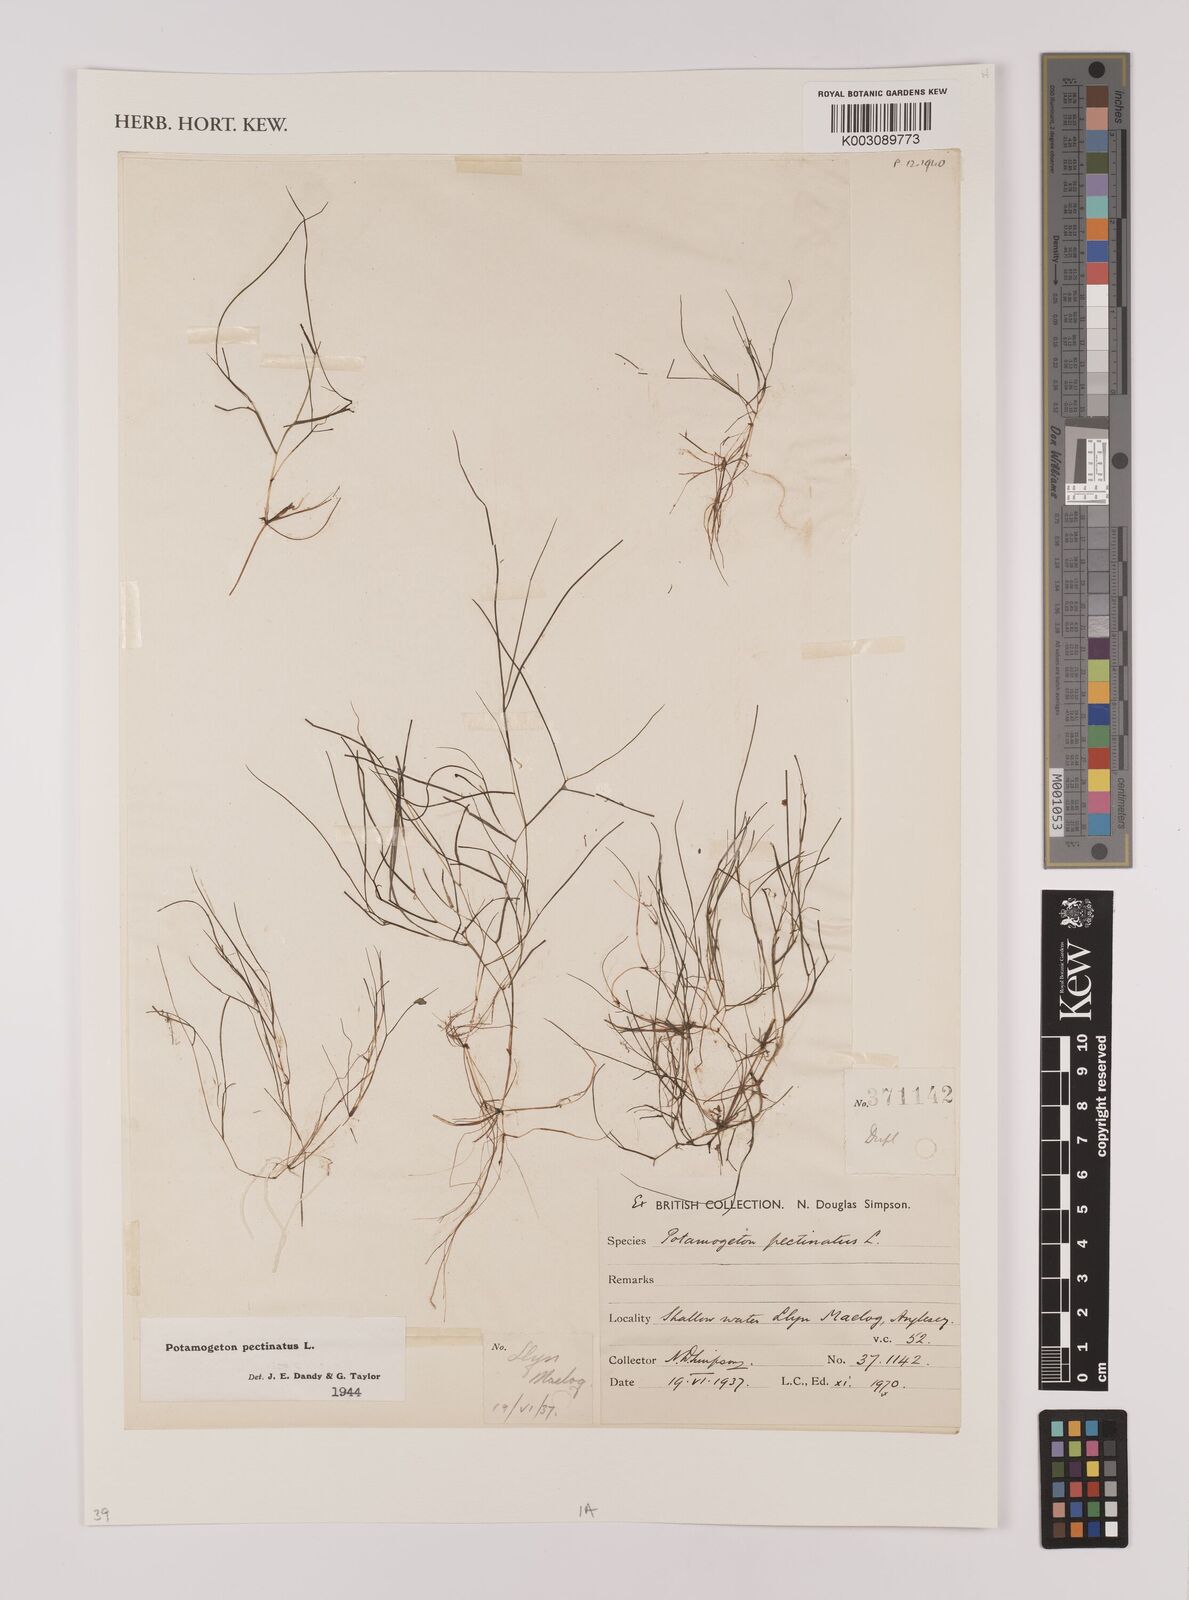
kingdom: Plantae
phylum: Tracheophyta
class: Liliopsida
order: Alismatales
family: Potamogetonaceae
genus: Stuckenia
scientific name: Stuckenia pectinata
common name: Sago pondweed
